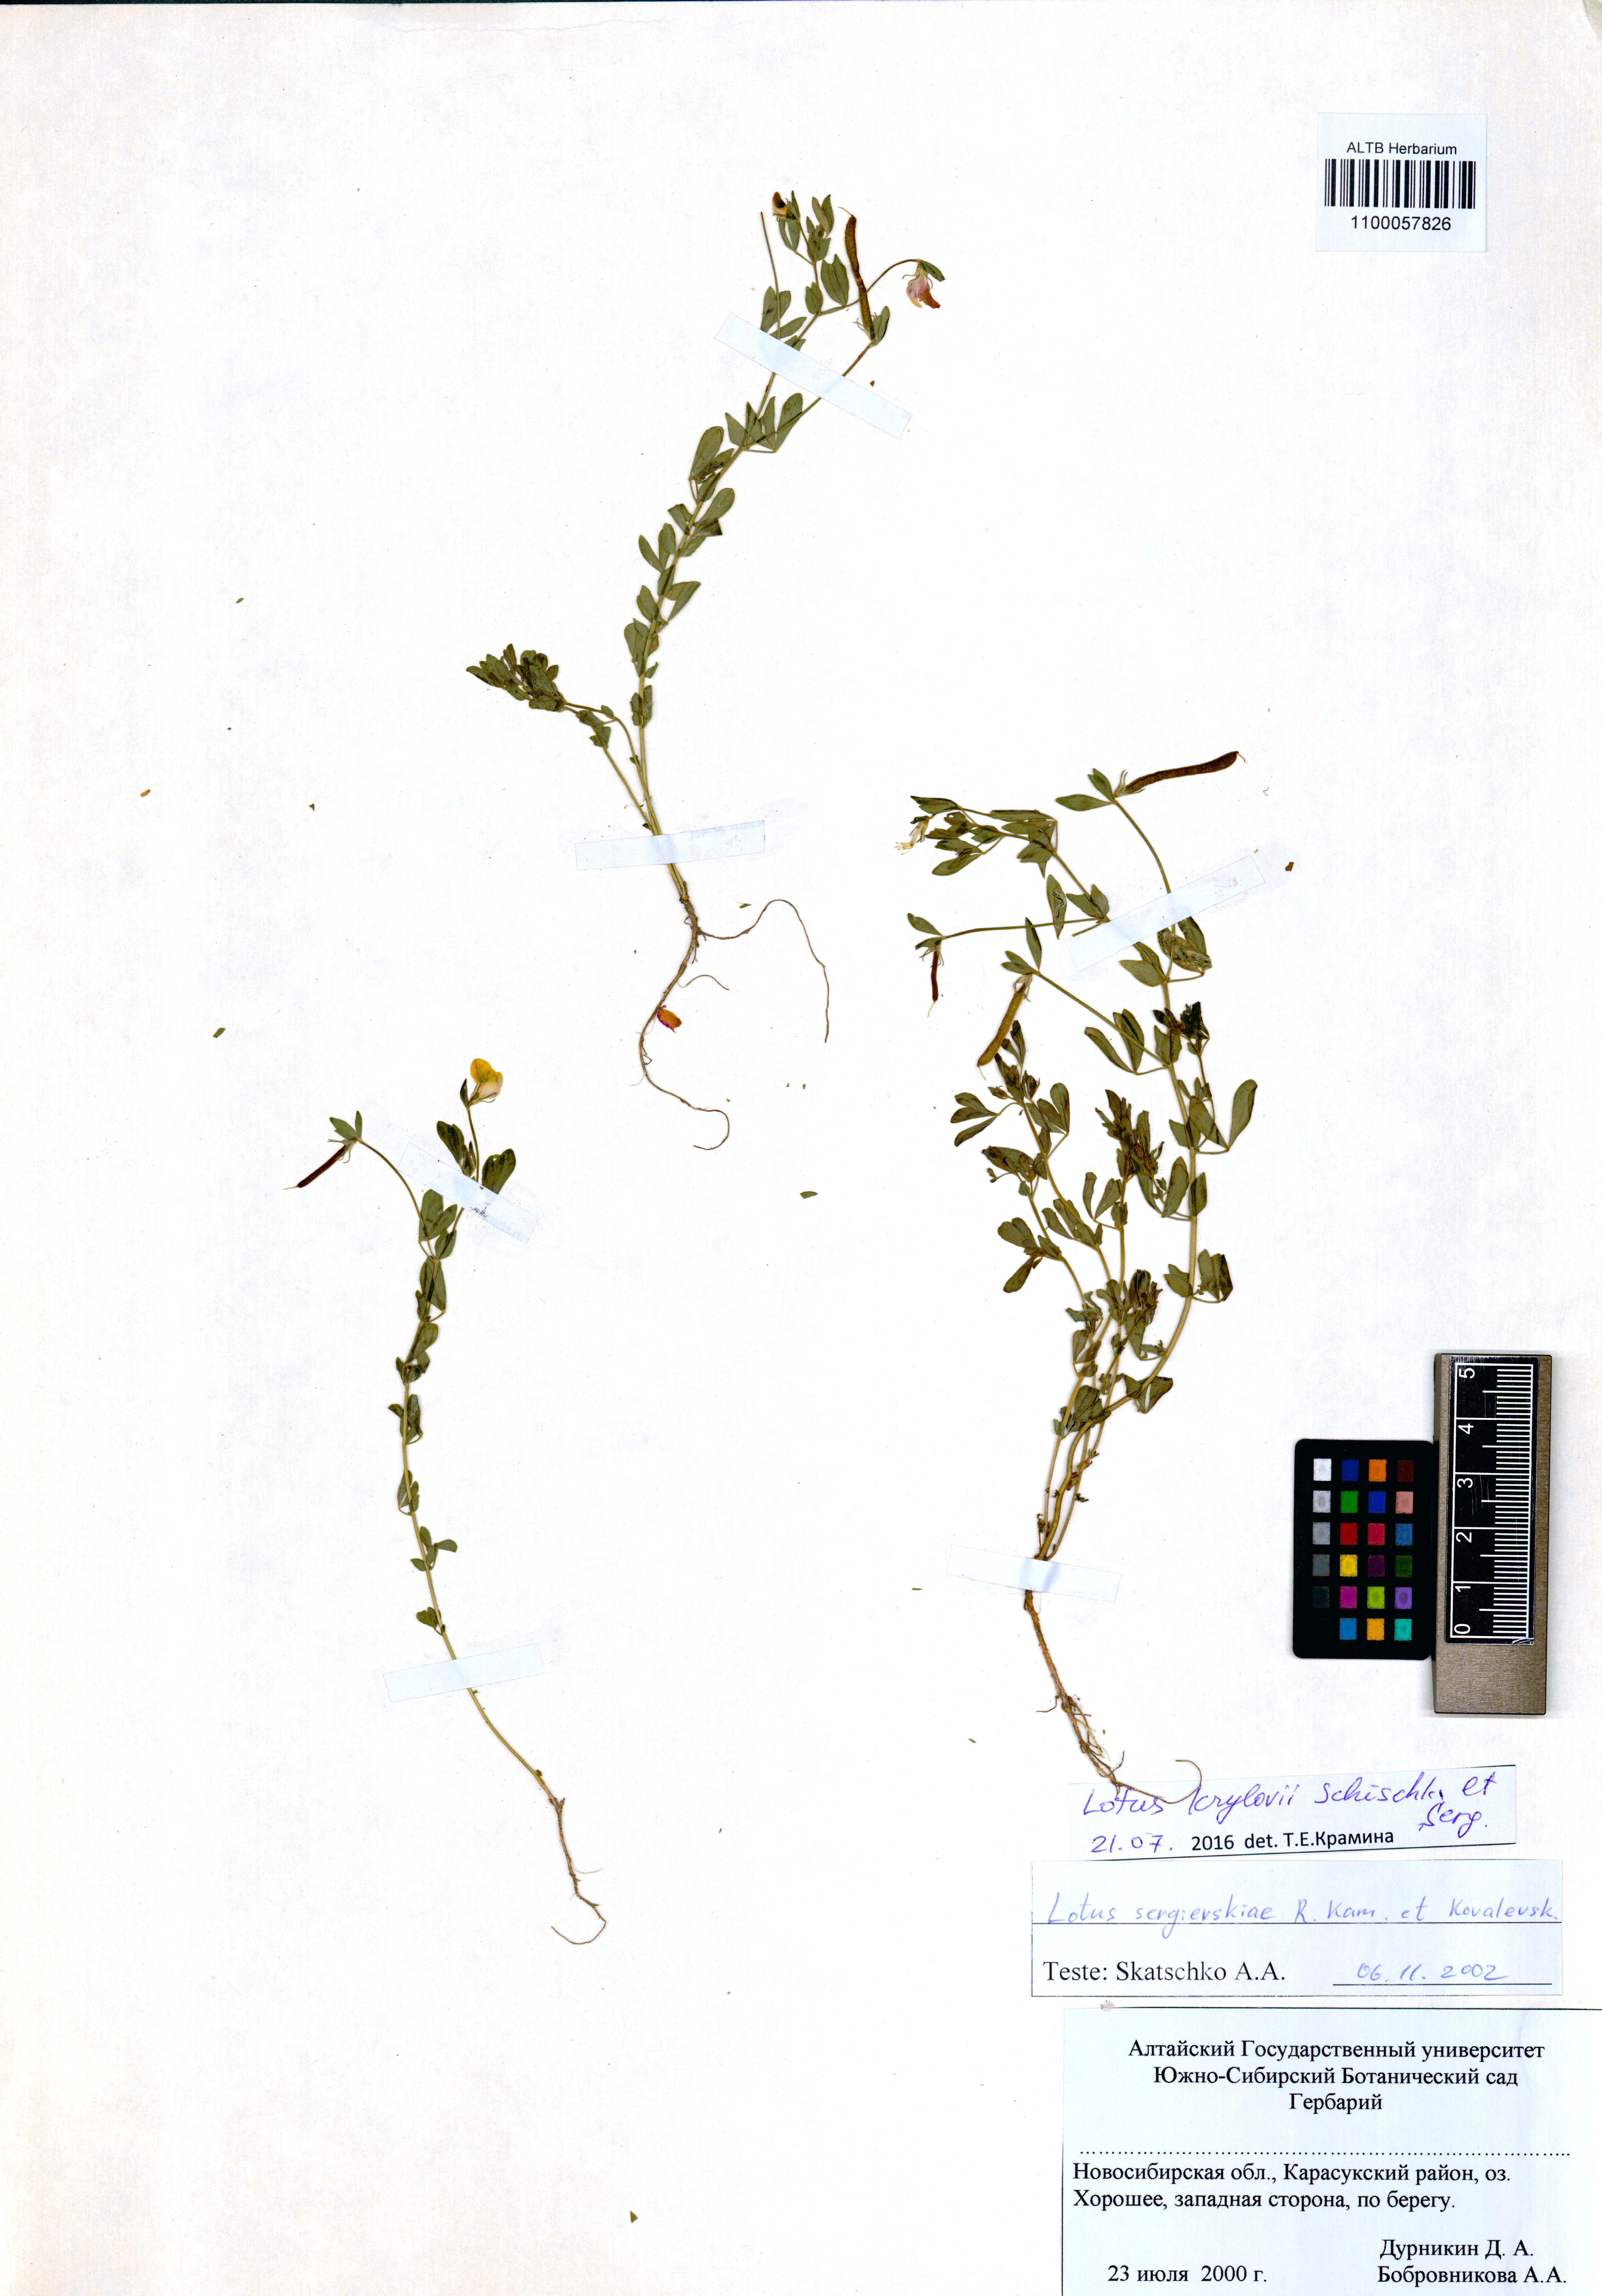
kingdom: Plantae
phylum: Tracheophyta
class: Magnoliopsida
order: Fabales
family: Fabaceae
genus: Lotus
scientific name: Lotus krylovii
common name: Krylov's bird's-foot trefoil
